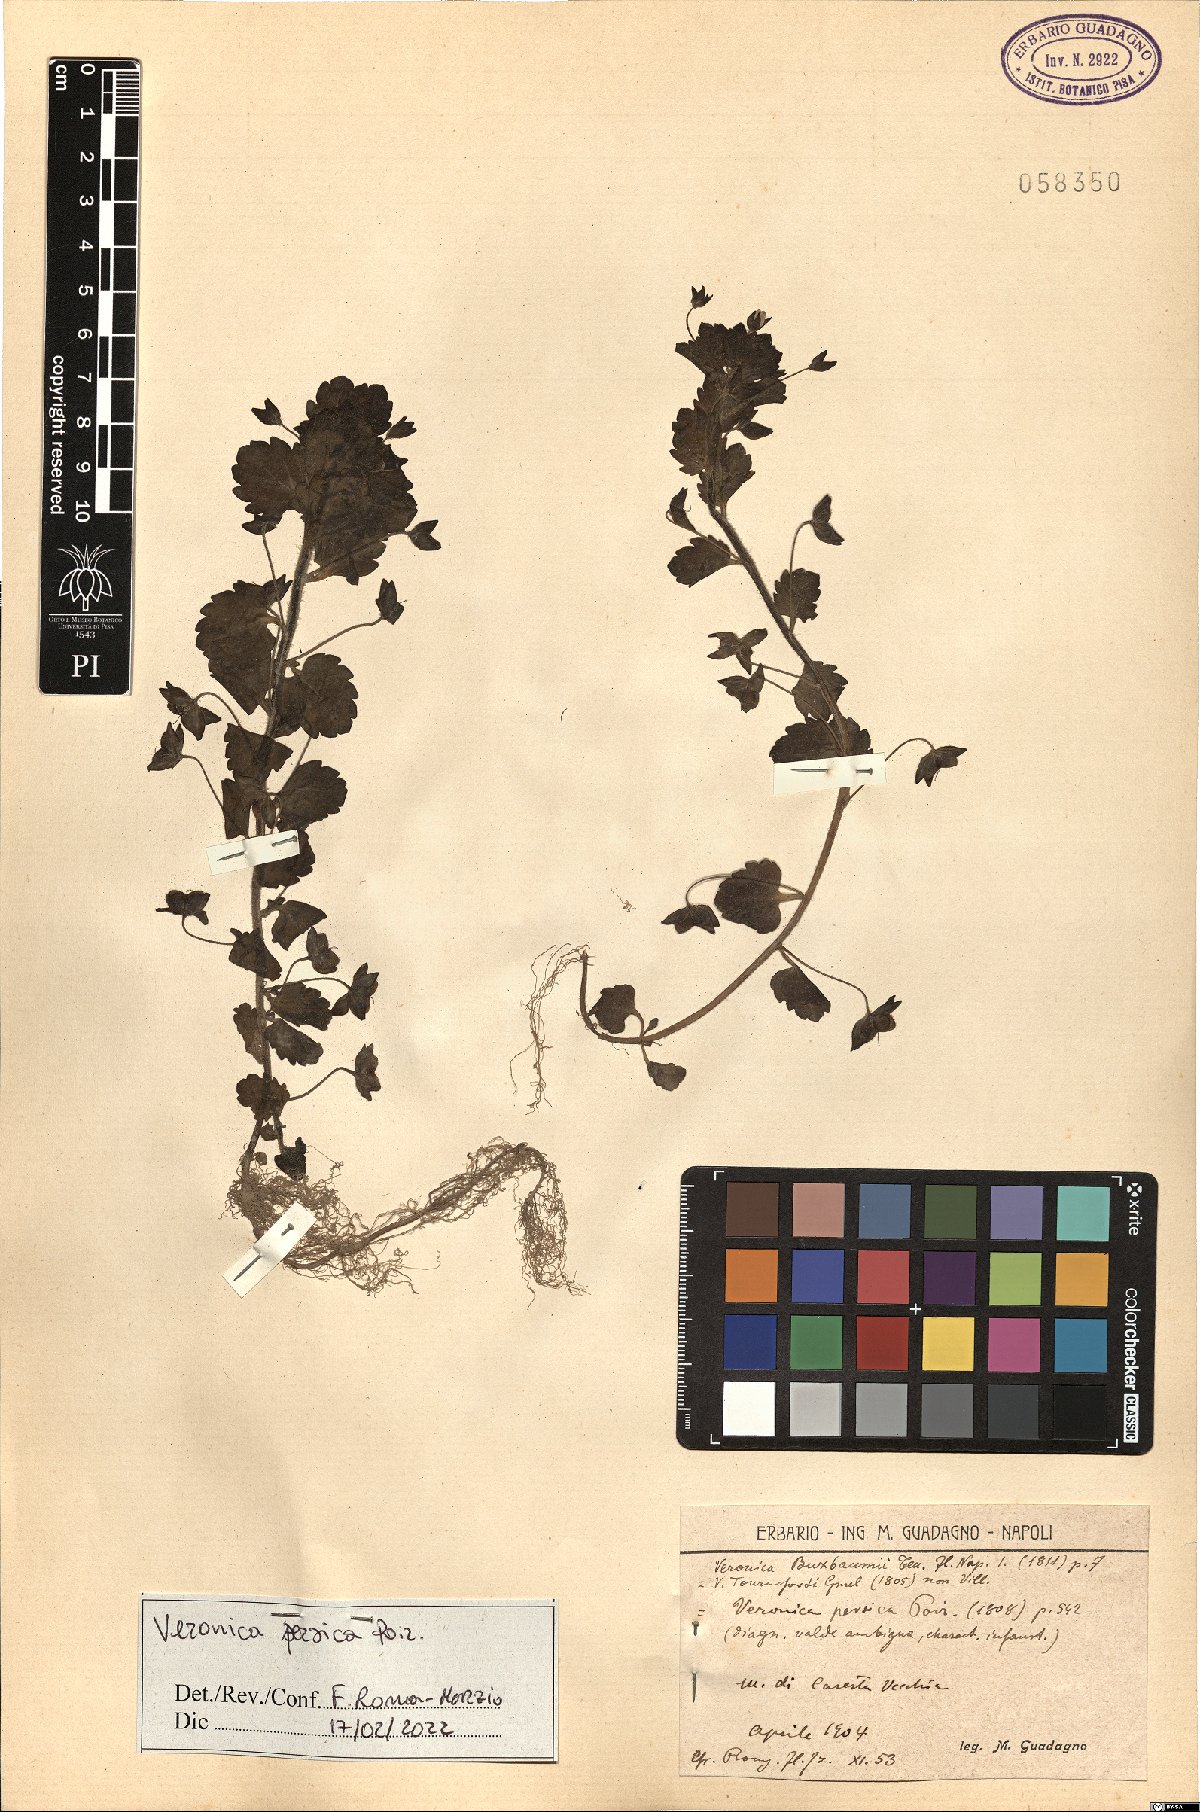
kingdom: Plantae
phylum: Tracheophyta
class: Magnoliopsida
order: Lamiales
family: Plantaginaceae
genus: Veronica
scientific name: Veronica persica
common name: Common field-speedwell
